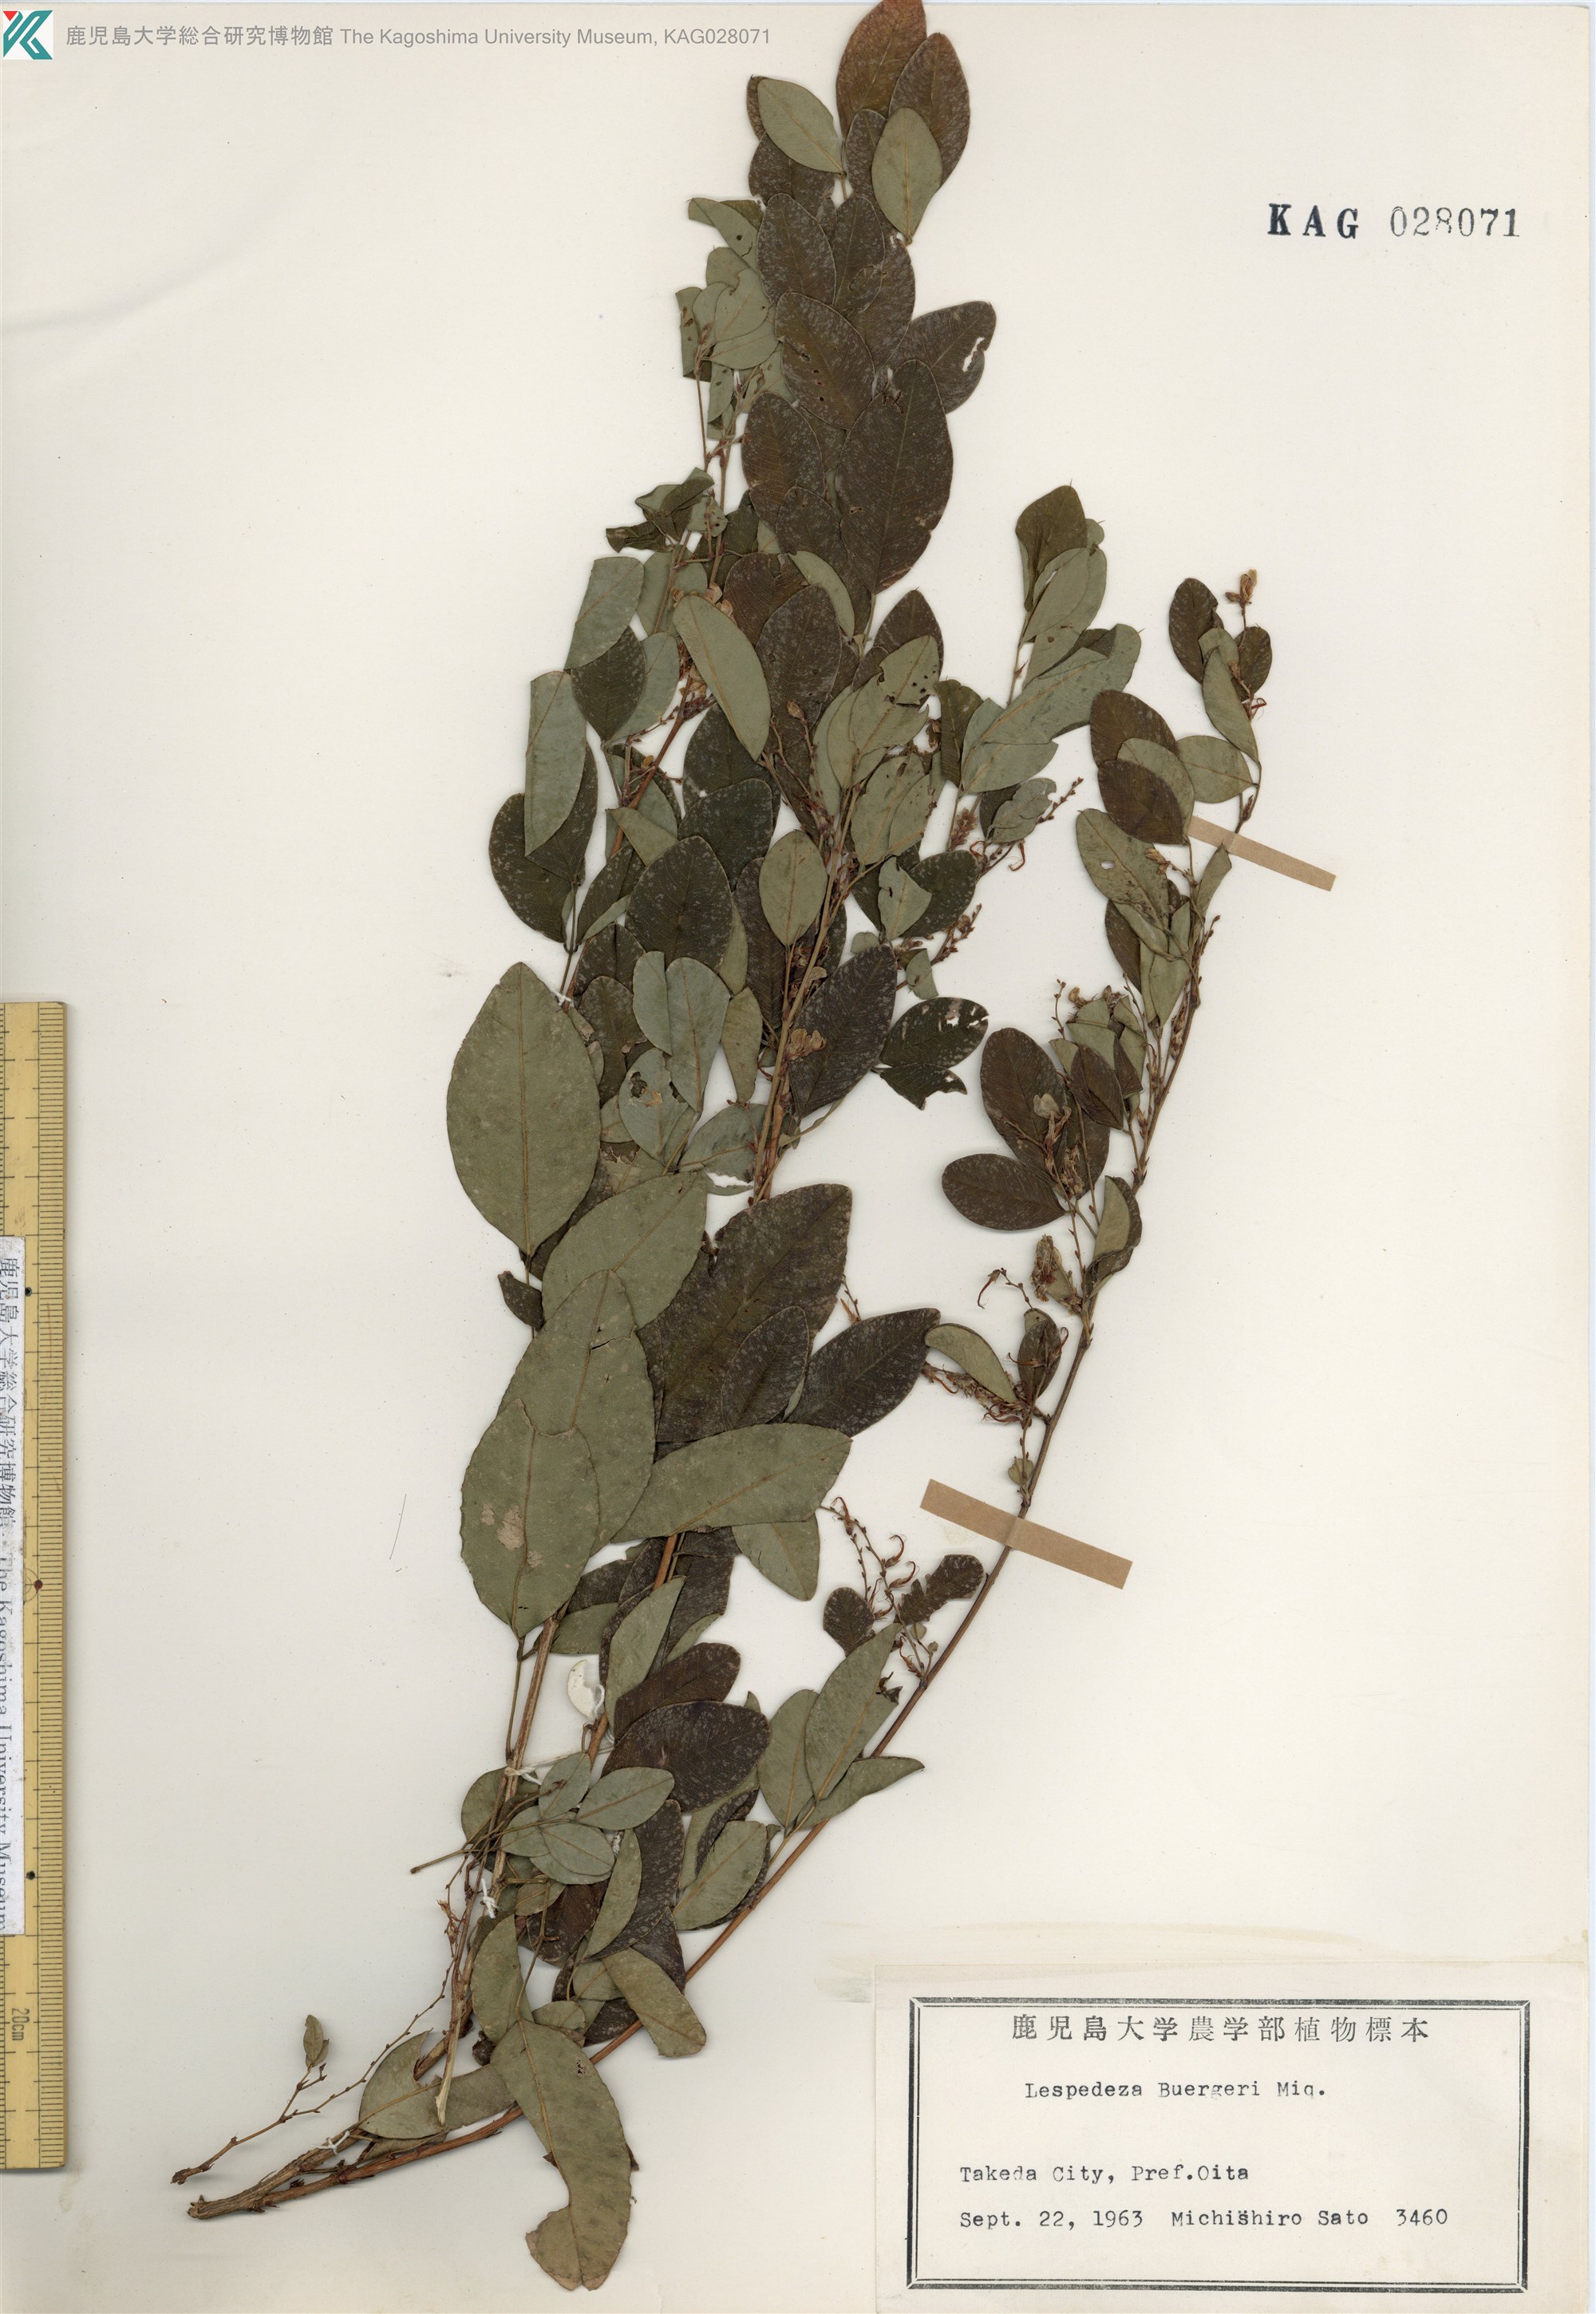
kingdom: Plantae
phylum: Tracheophyta
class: Magnoliopsida
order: Fabales
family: Fabaceae
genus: Lespedeza
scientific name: Lespedeza buergeri
